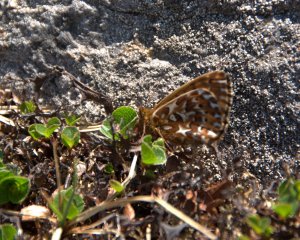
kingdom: Animalia
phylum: Arthropoda
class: Insecta
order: Lepidoptera
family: Nymphalidae
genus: Clossiana
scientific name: Clossiana polaris
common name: Polaris Fritillary
